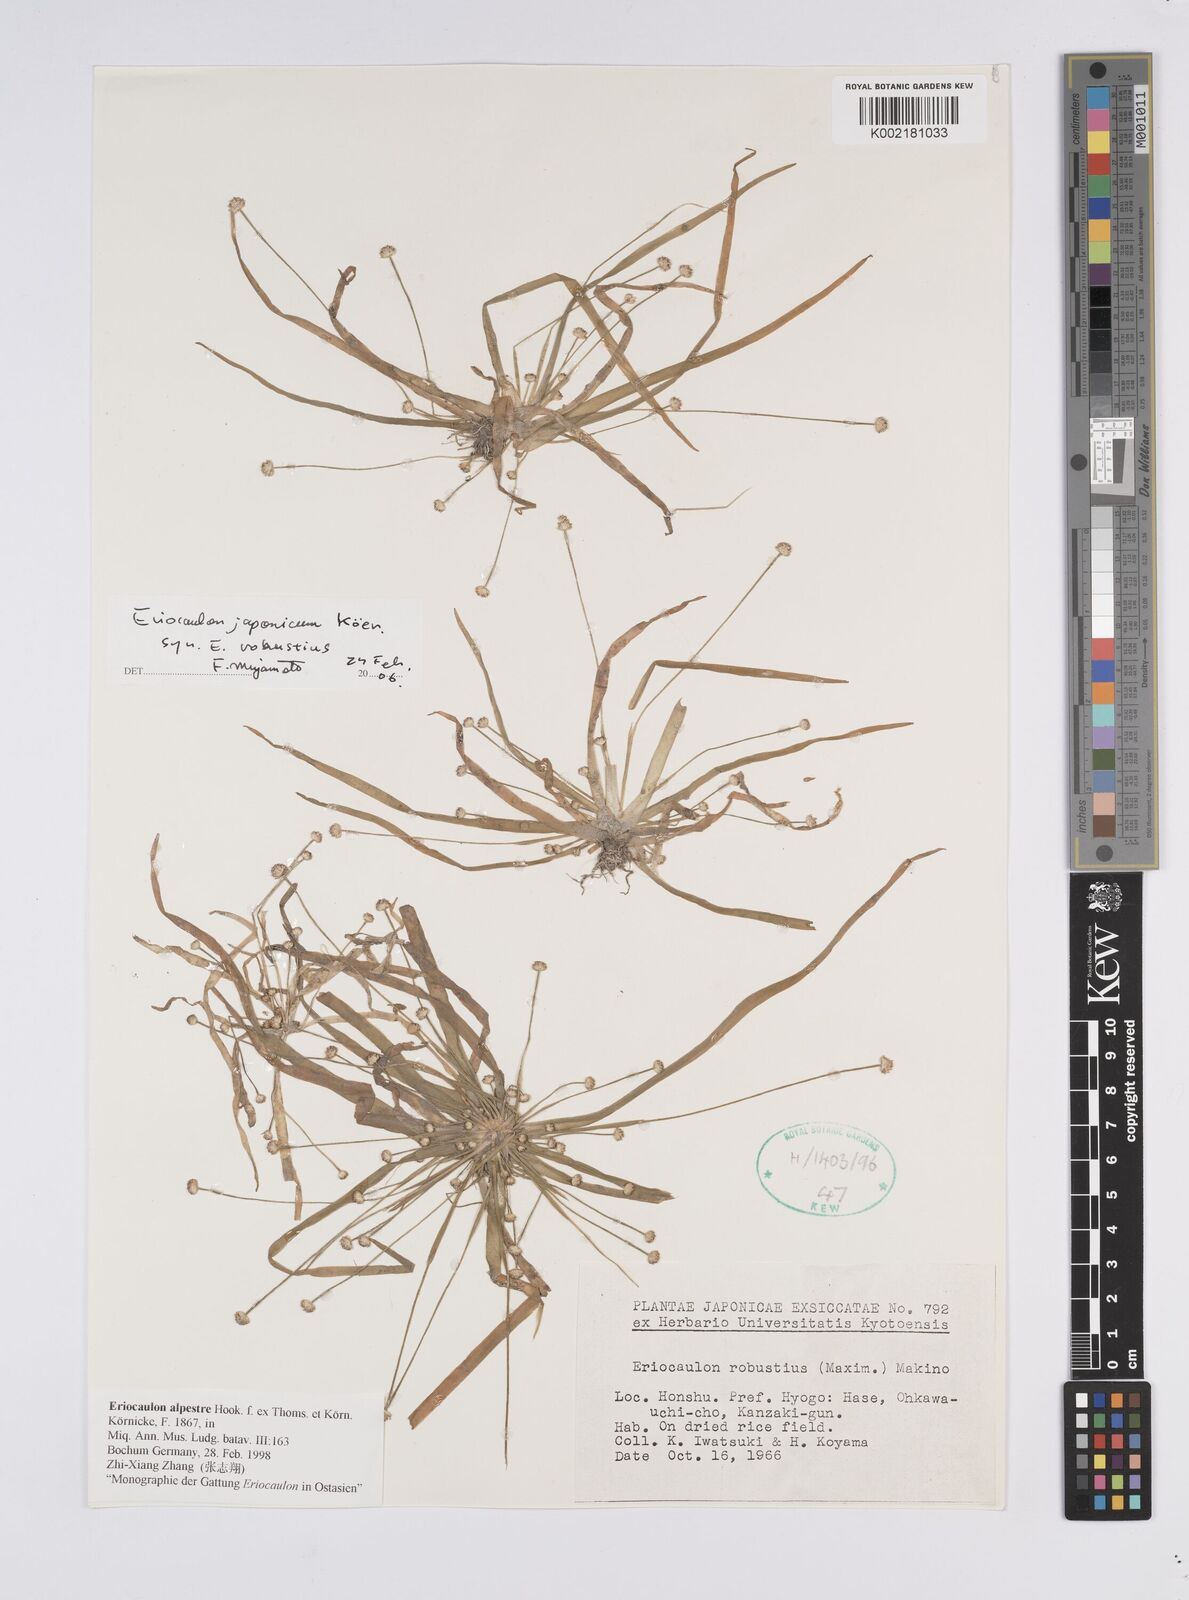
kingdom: Plantae
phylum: Tracheophyta
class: Liliopsida
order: Poales
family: Eriocaulaceae
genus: Eriocaulon
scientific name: Eriocaulon alpestre
